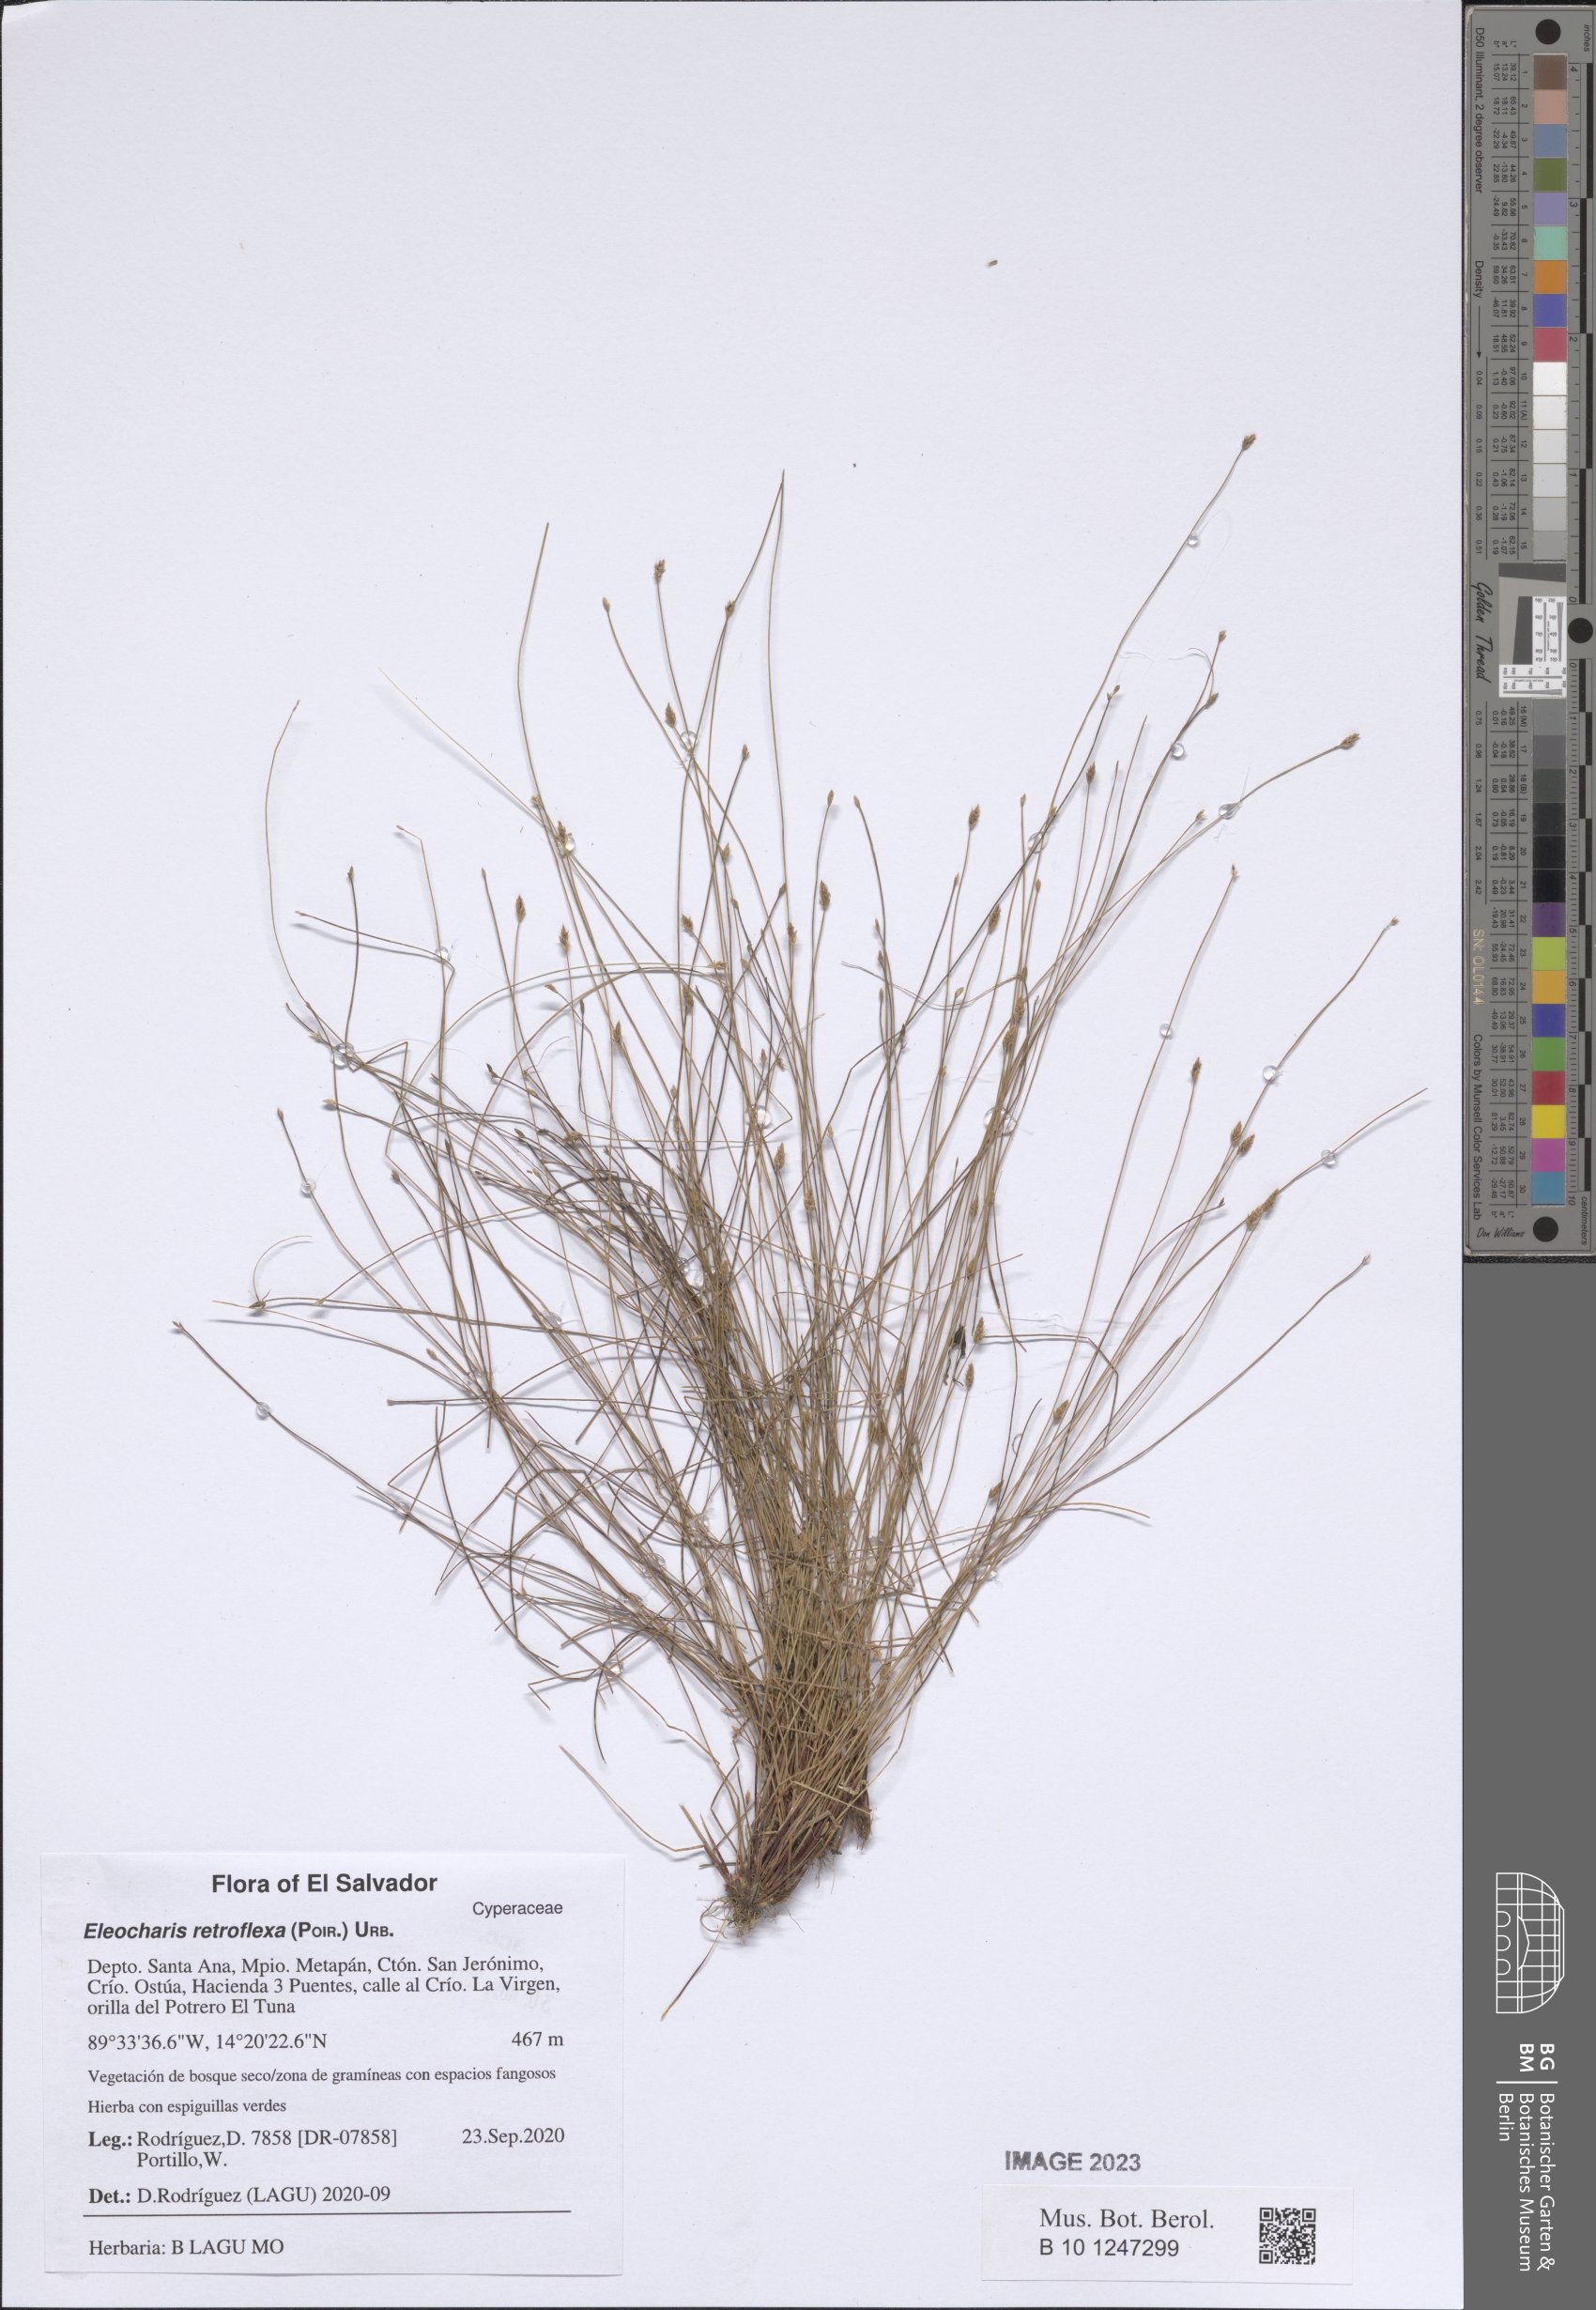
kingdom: Plantae
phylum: Tracheophyta
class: Liliopsida
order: Poales
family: Cyperaceae
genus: Eleocharis
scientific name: Eleocharis retroflexa
